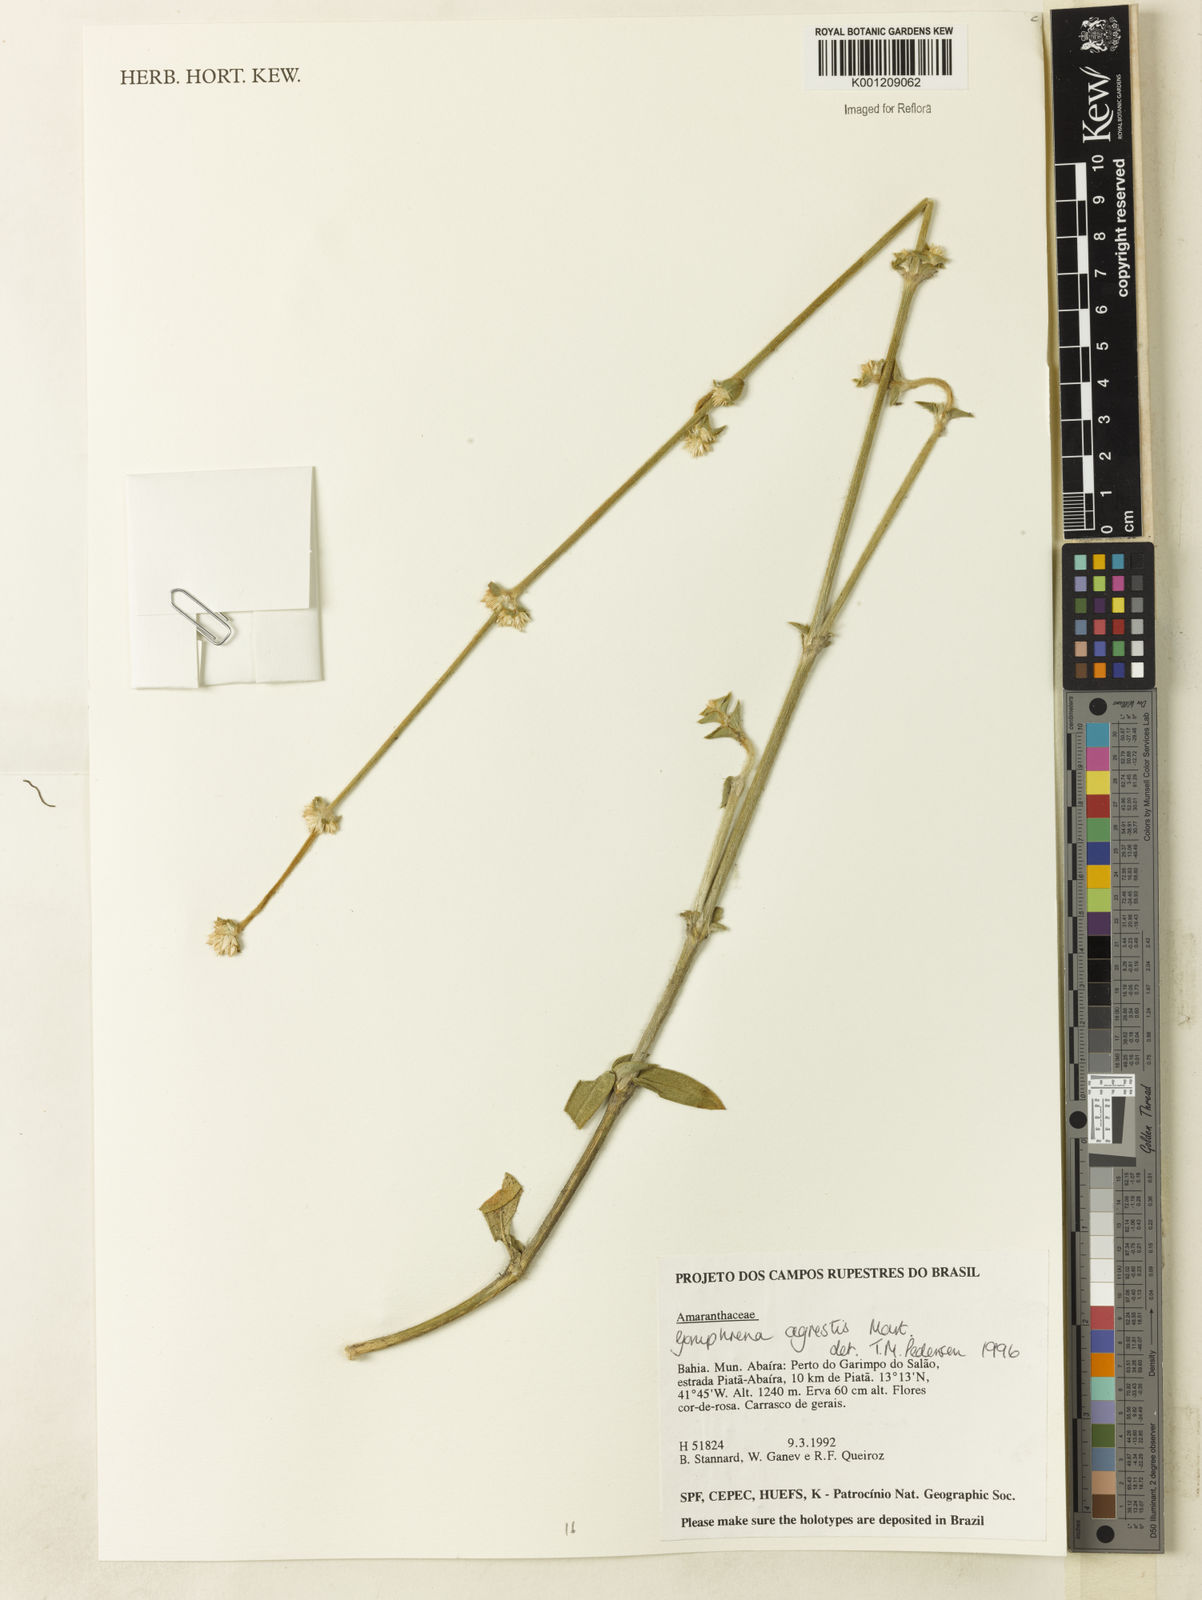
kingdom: Plantae
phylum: Tracheophyta
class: Magnoliopsida
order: Caryophyllales
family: Amaranthaceae
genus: Gomphrena
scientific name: Gomphrena agrestis
